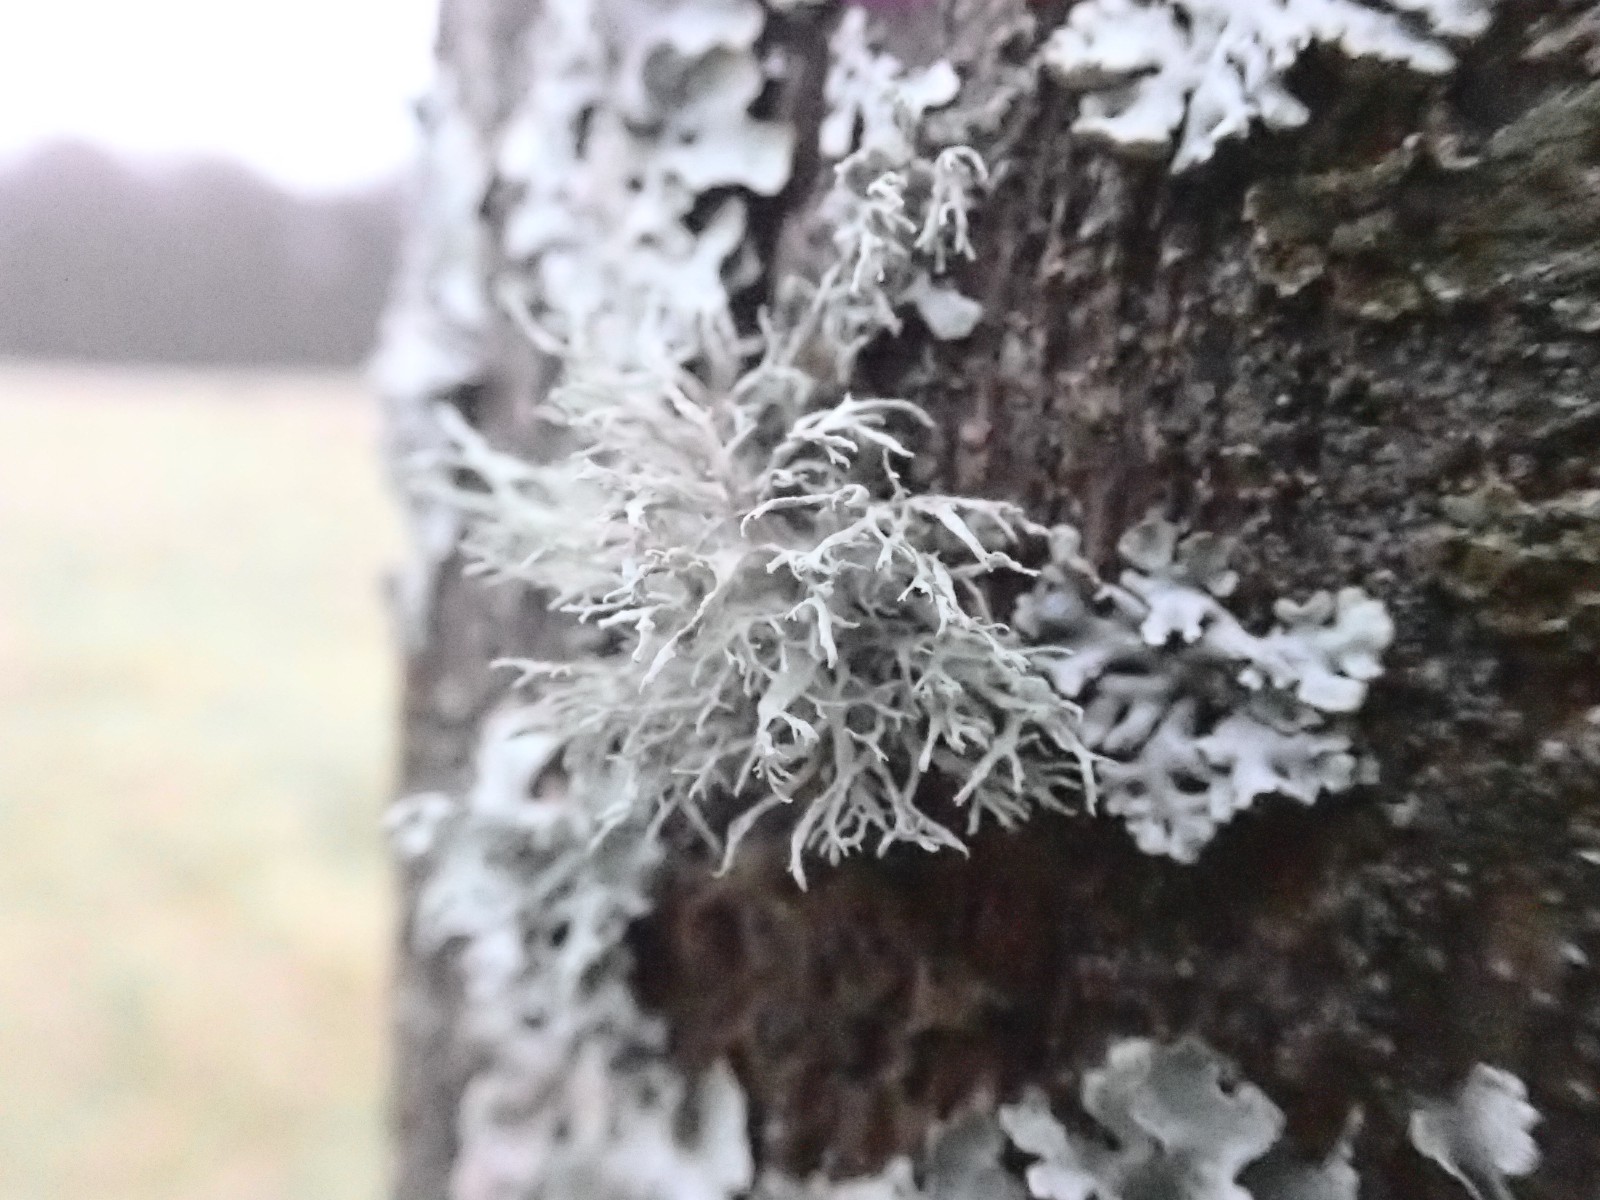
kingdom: Fungi
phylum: Ascomycota
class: Lecanoromycetes
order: Lecanorales
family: Ramalinaceae
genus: Ramalina
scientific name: Ramalina farinacea
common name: melet grenlav
